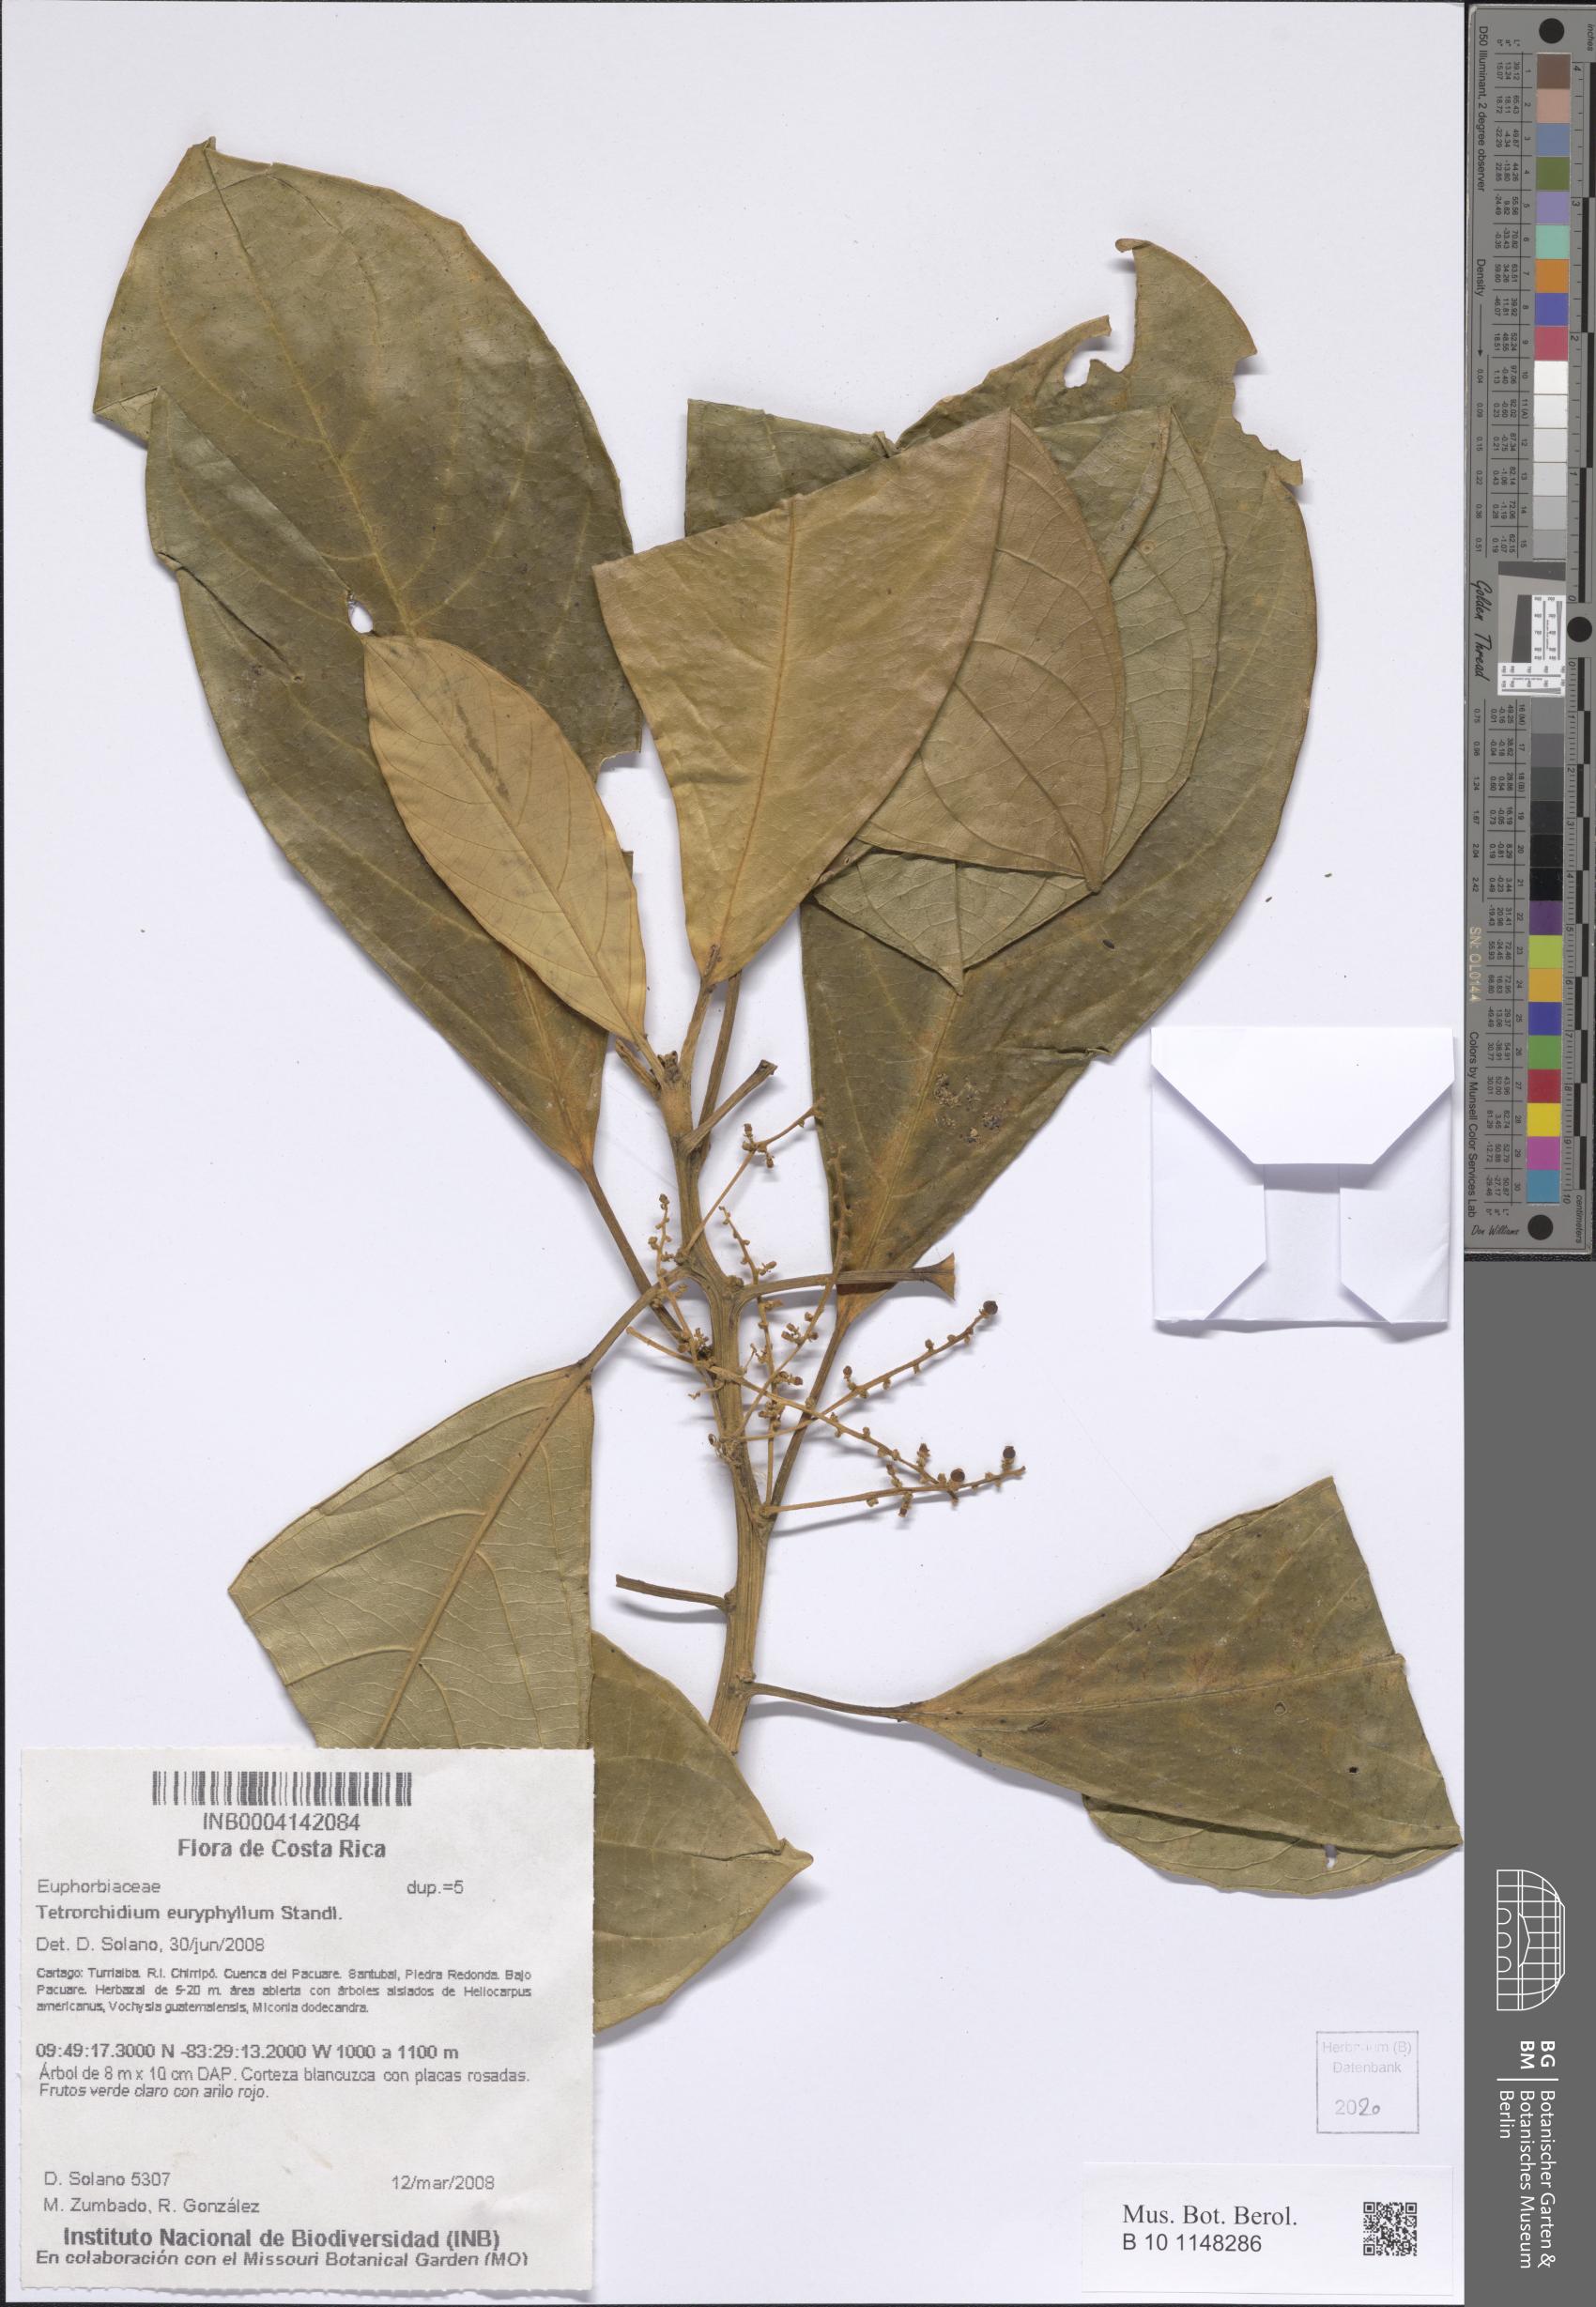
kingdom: Plantae
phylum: Tracheophyta
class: Magnoliopsida
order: Malpighiales
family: Euphorbiaceae
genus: Tetrorchidium
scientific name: Tetrorchidium euryphyllum
